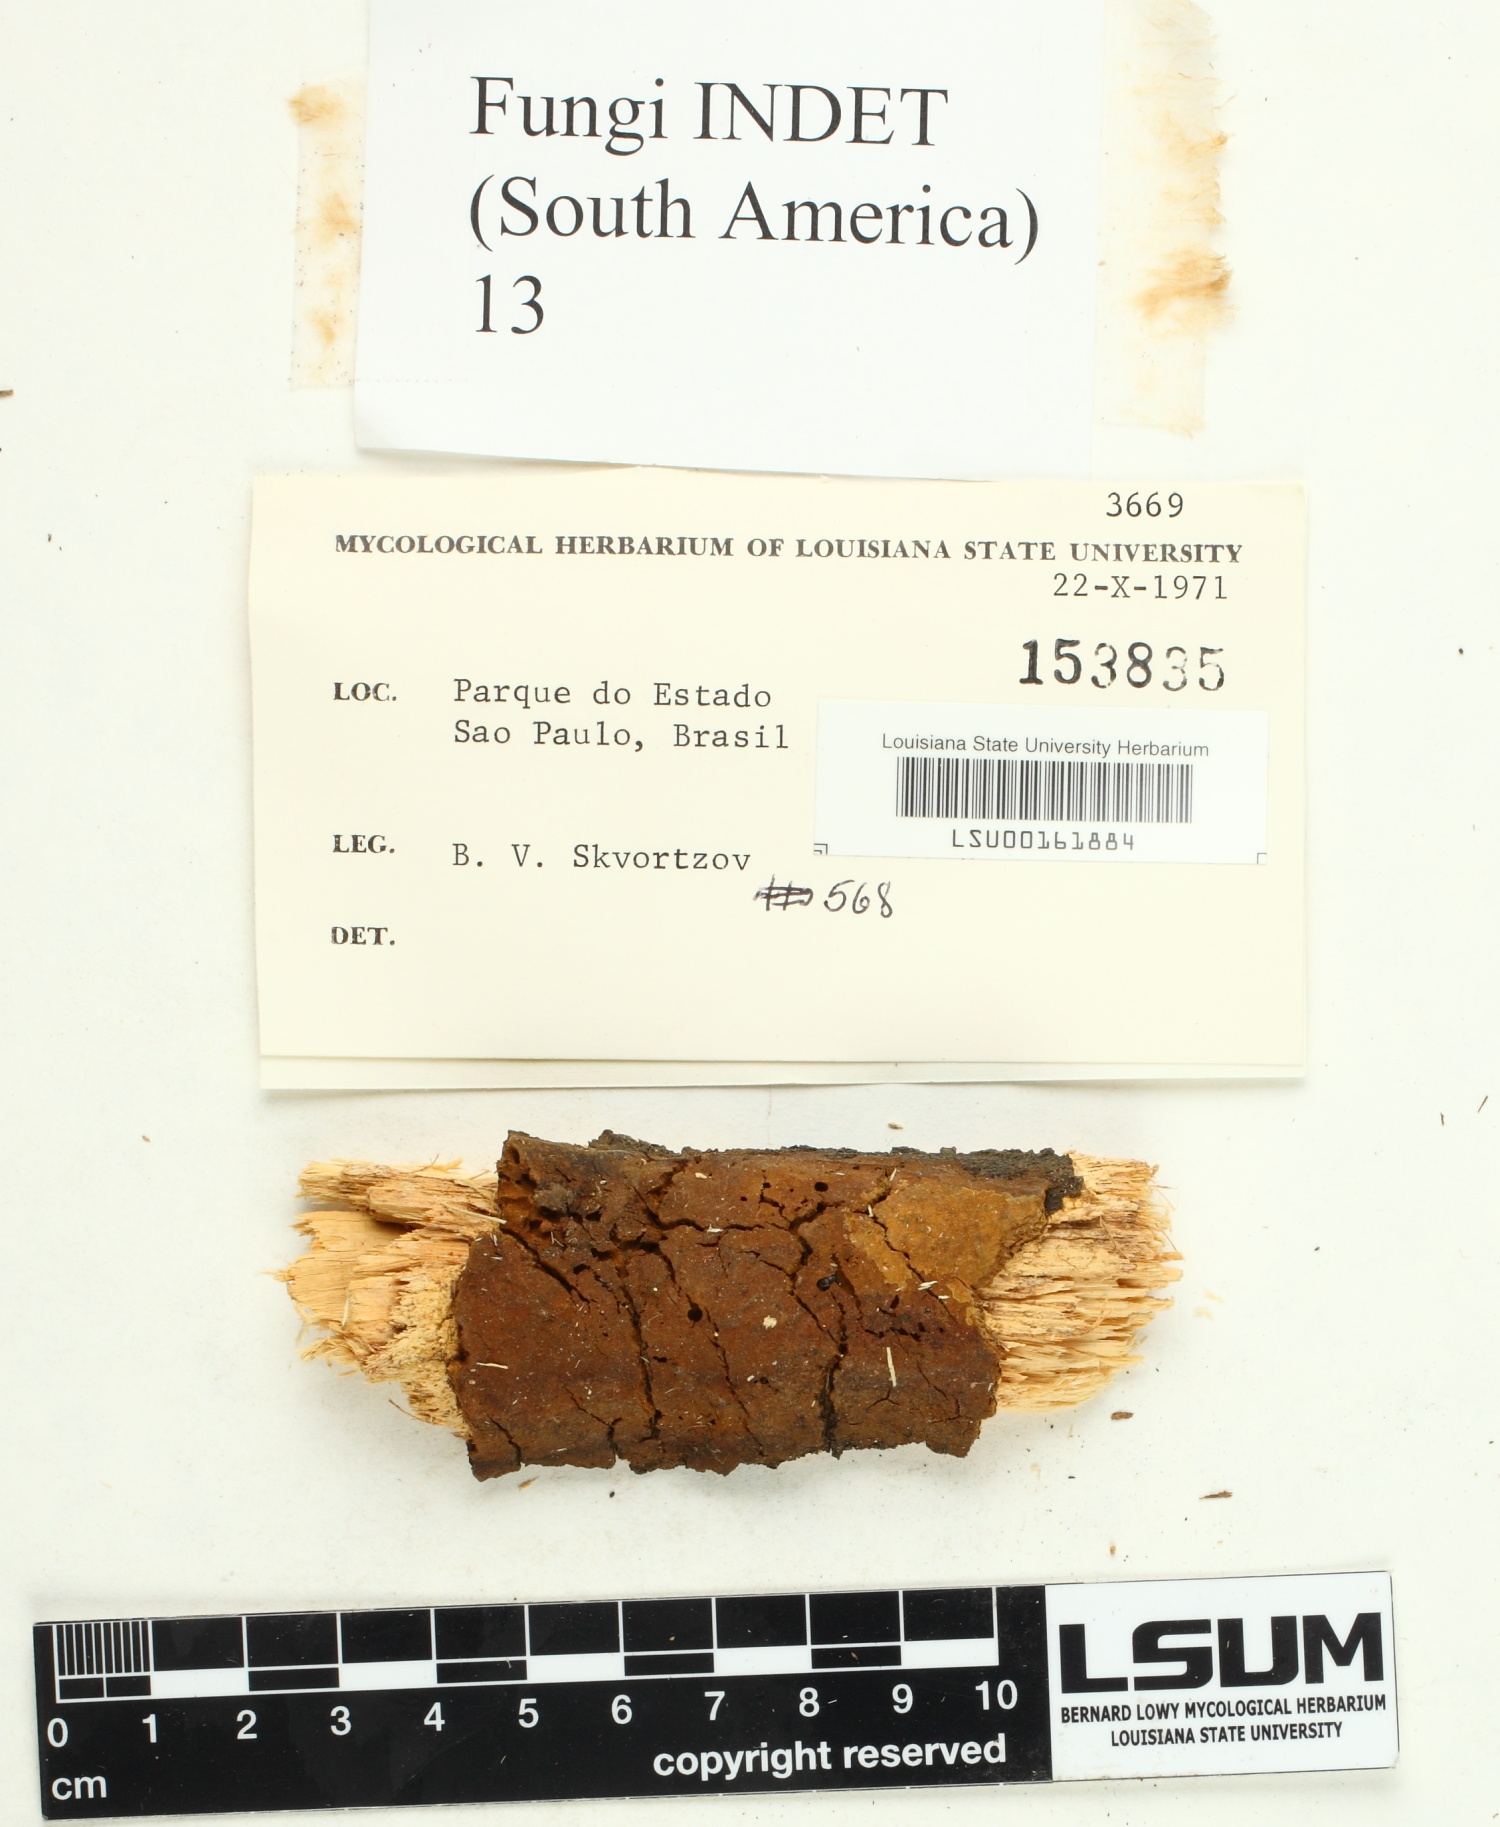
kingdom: Fungi
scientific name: Fungi
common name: Fungi
